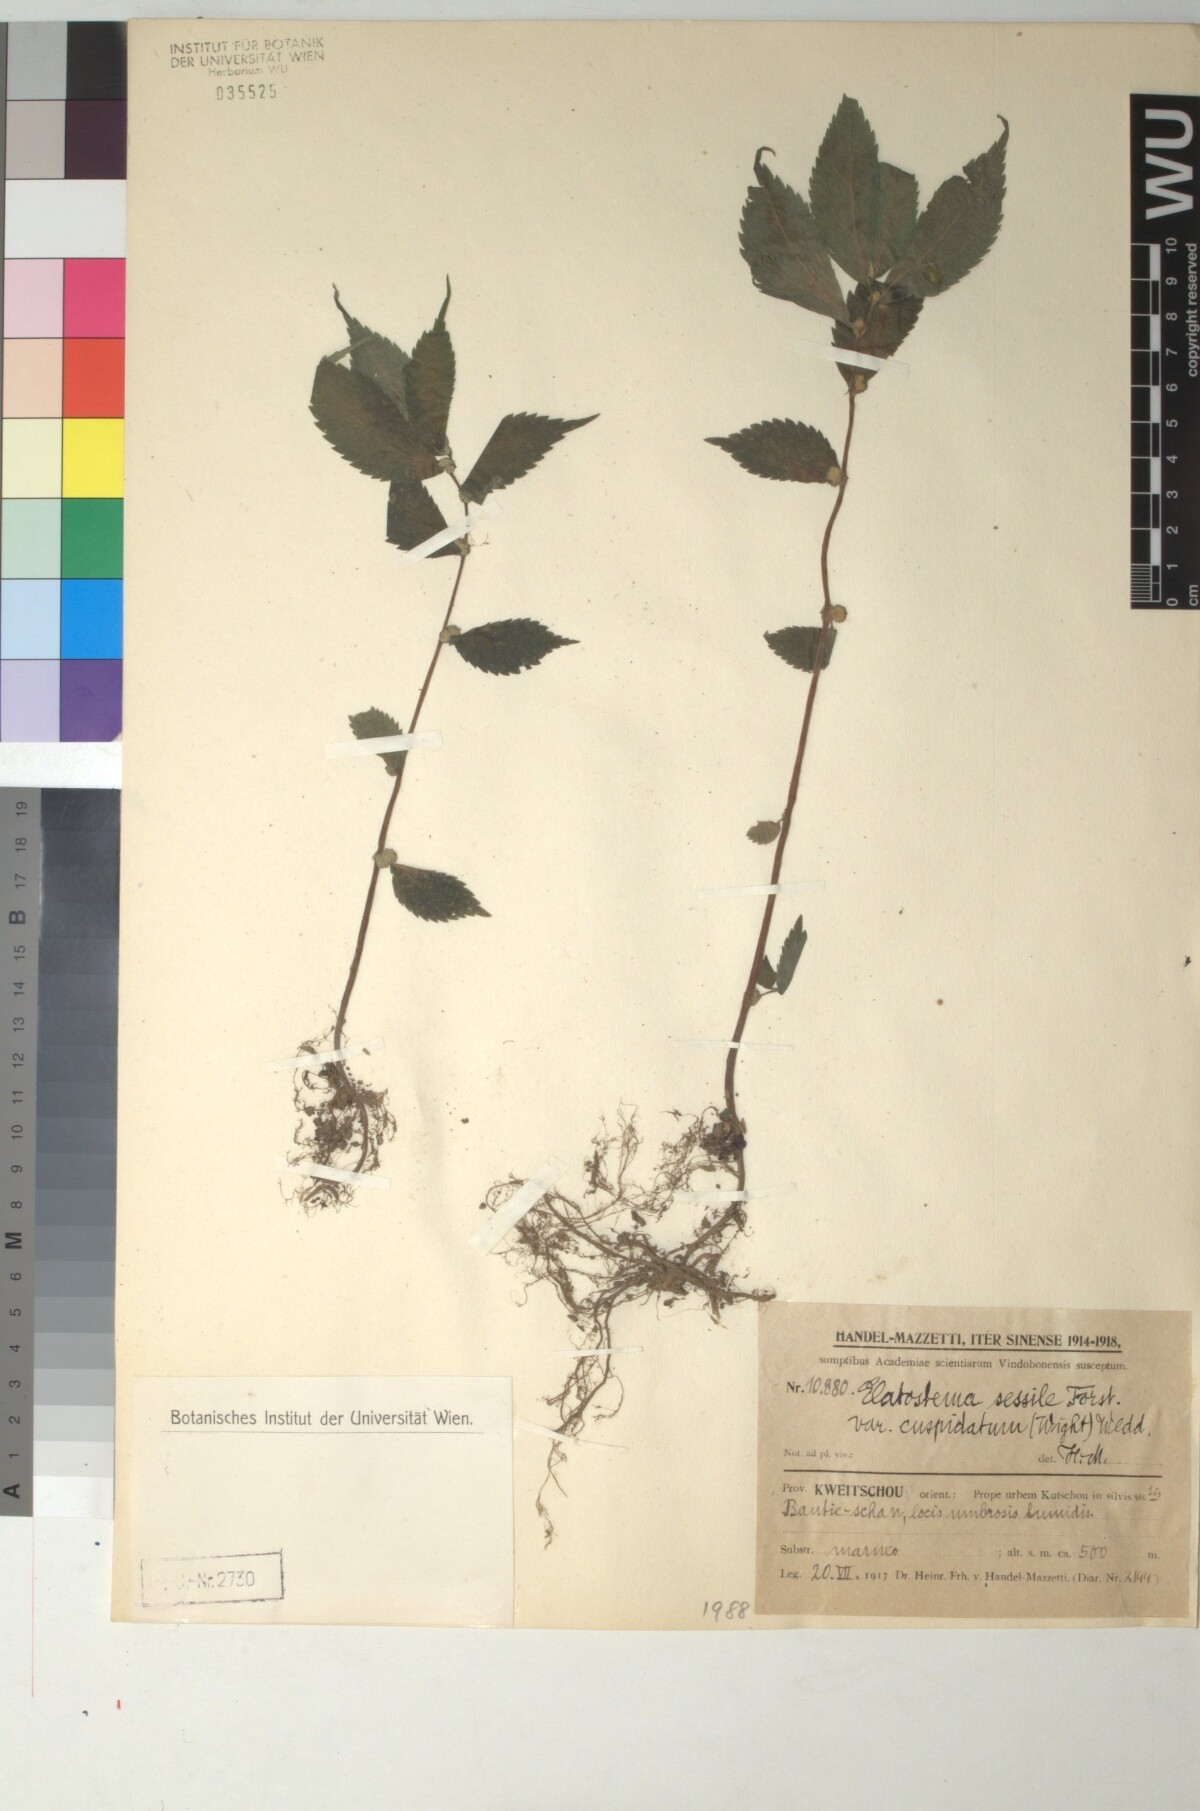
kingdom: Plantae
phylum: Tracheophyta
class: Magnoliopsida
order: Rosales
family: Urticaceae
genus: Elatostema
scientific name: Elatostema cyrtandrifolium
